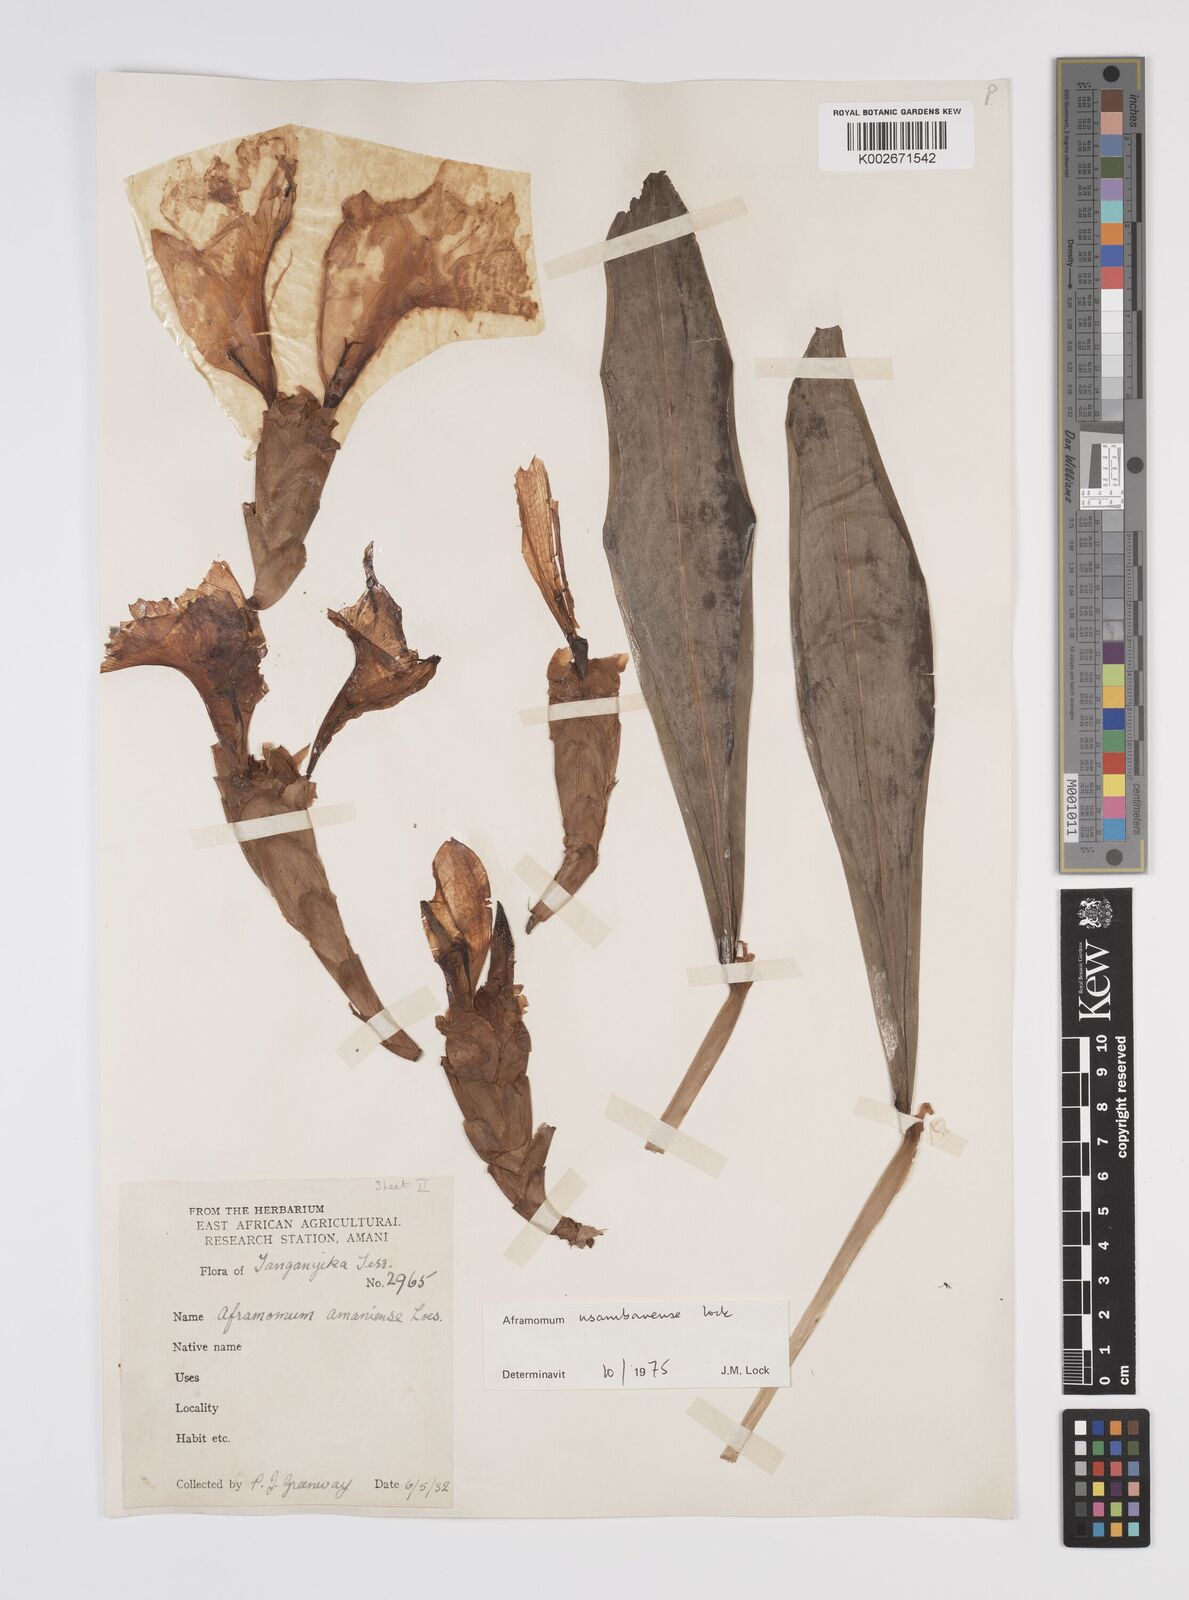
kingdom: Plantae
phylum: Tracheophyta
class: Liliopsida
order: Zingiberales
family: Zingiberaceae
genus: Aframomum
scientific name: Aframomum corrorima
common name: Ethiopian cardamom
